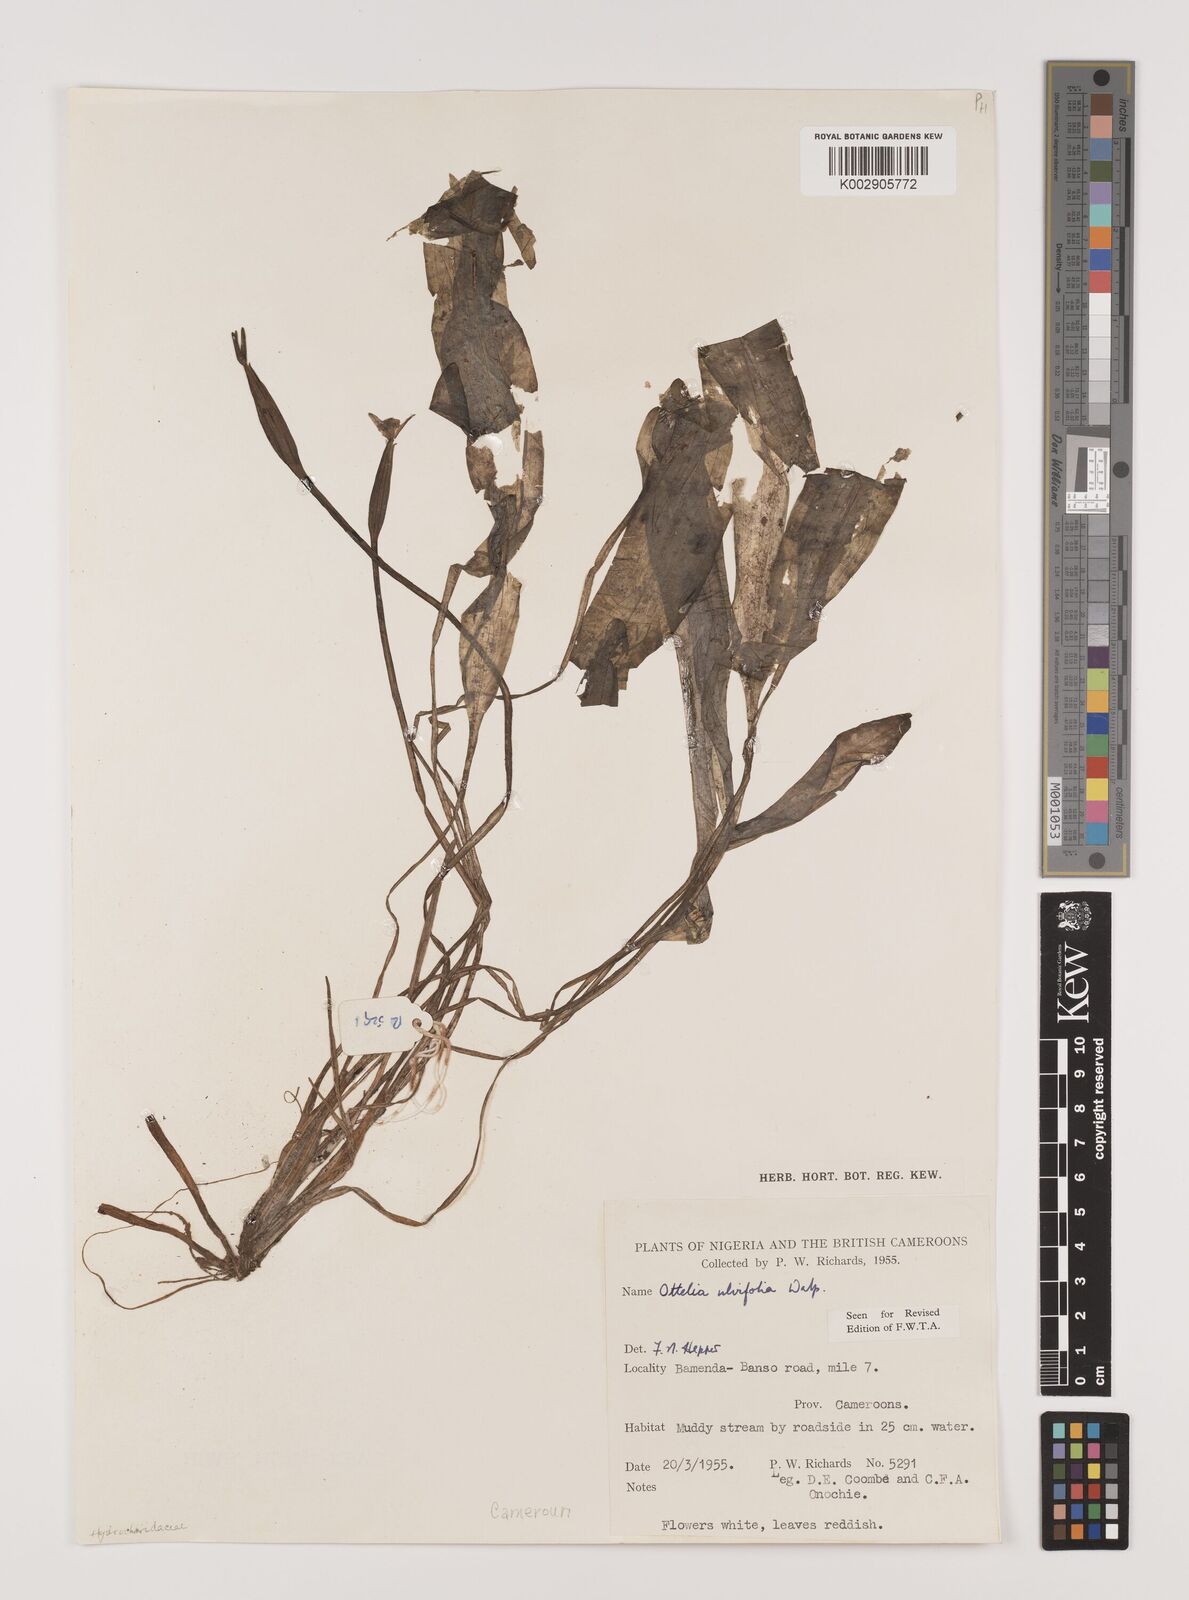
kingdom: Plantae
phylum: Tracheophyta
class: Liliopsida
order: Alismatales
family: Hydrocharitaceae
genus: Ottelia
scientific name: Ottelia ulvifolia
